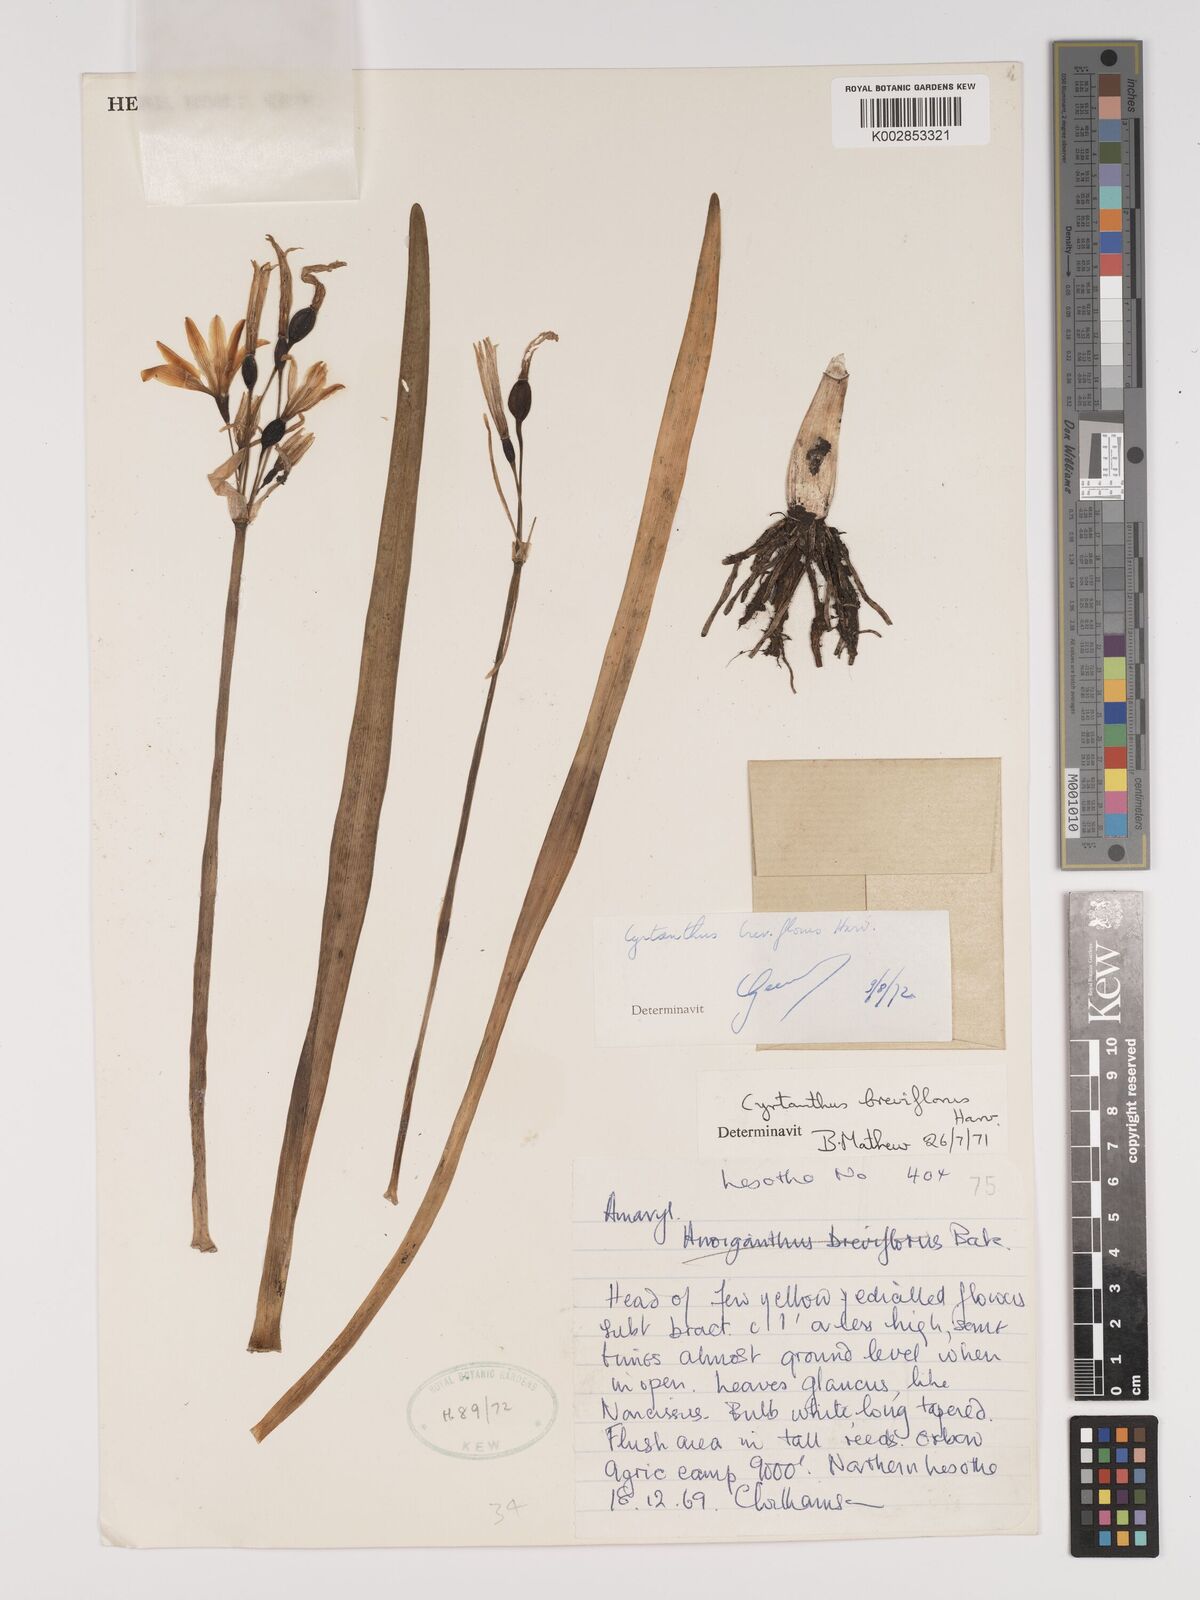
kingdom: Plantae
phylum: Tracheophyta
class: Liliopsida
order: Asparagales
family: Amaryllidaceae
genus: Cyrtanthus
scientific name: Cyrtanthus breviflorus
